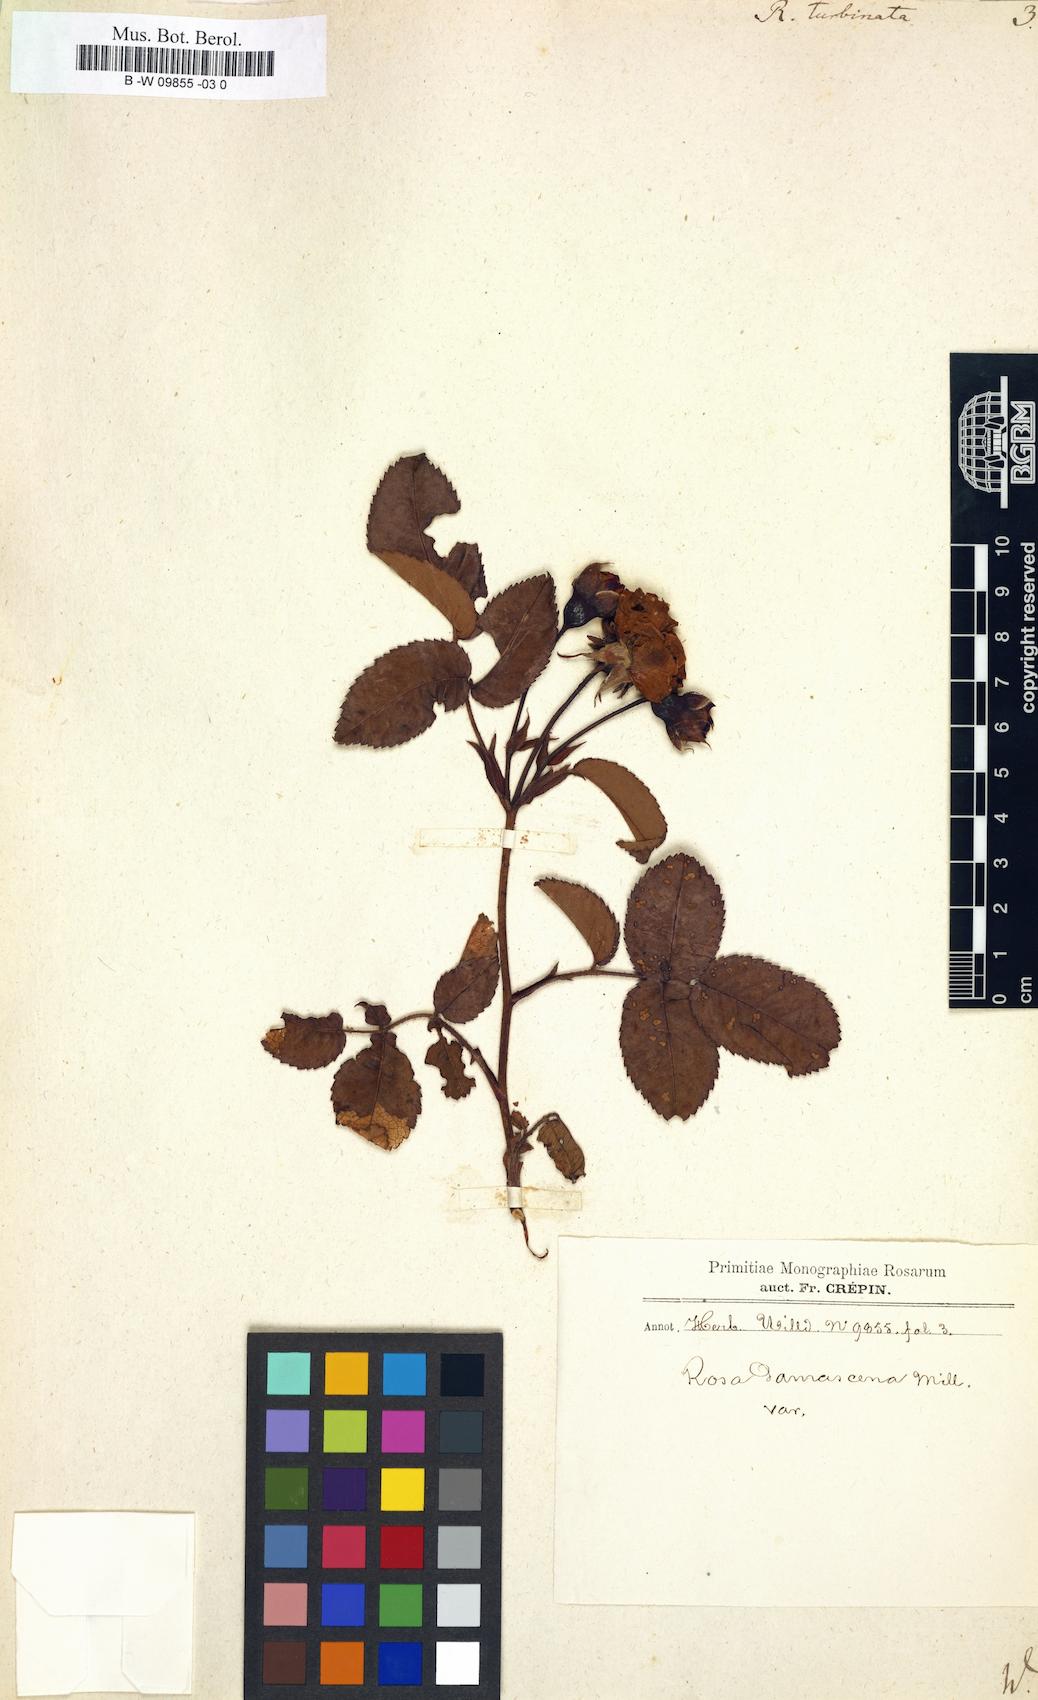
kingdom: Plantae
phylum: Tracheophyta
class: Magnoliopsida
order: Rosales
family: Rosaceae
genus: Rosa
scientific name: Rosa
